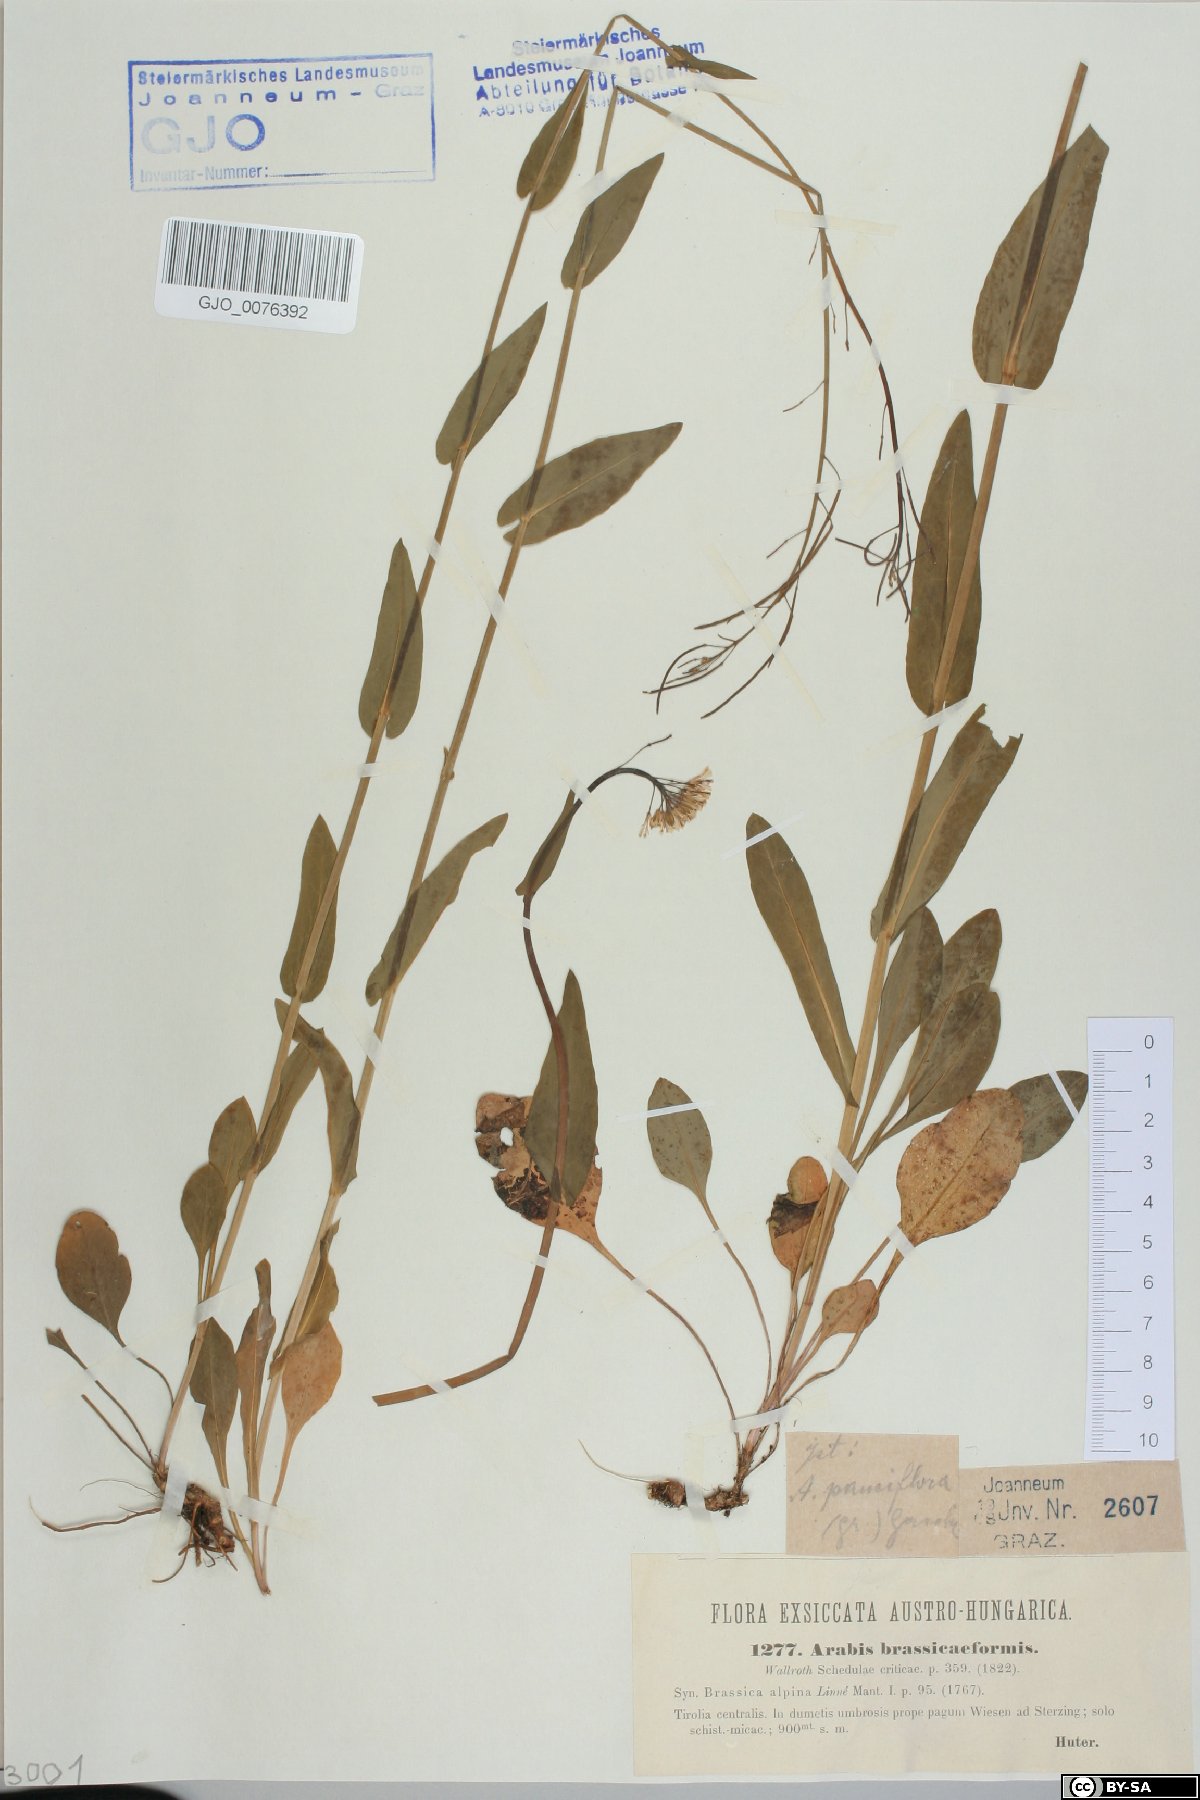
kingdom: Plantae
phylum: Tracheophyta
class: Magnoliopsida
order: Brassicales
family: Brassicaceae
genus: Fourraea
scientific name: Fourraea alpina
